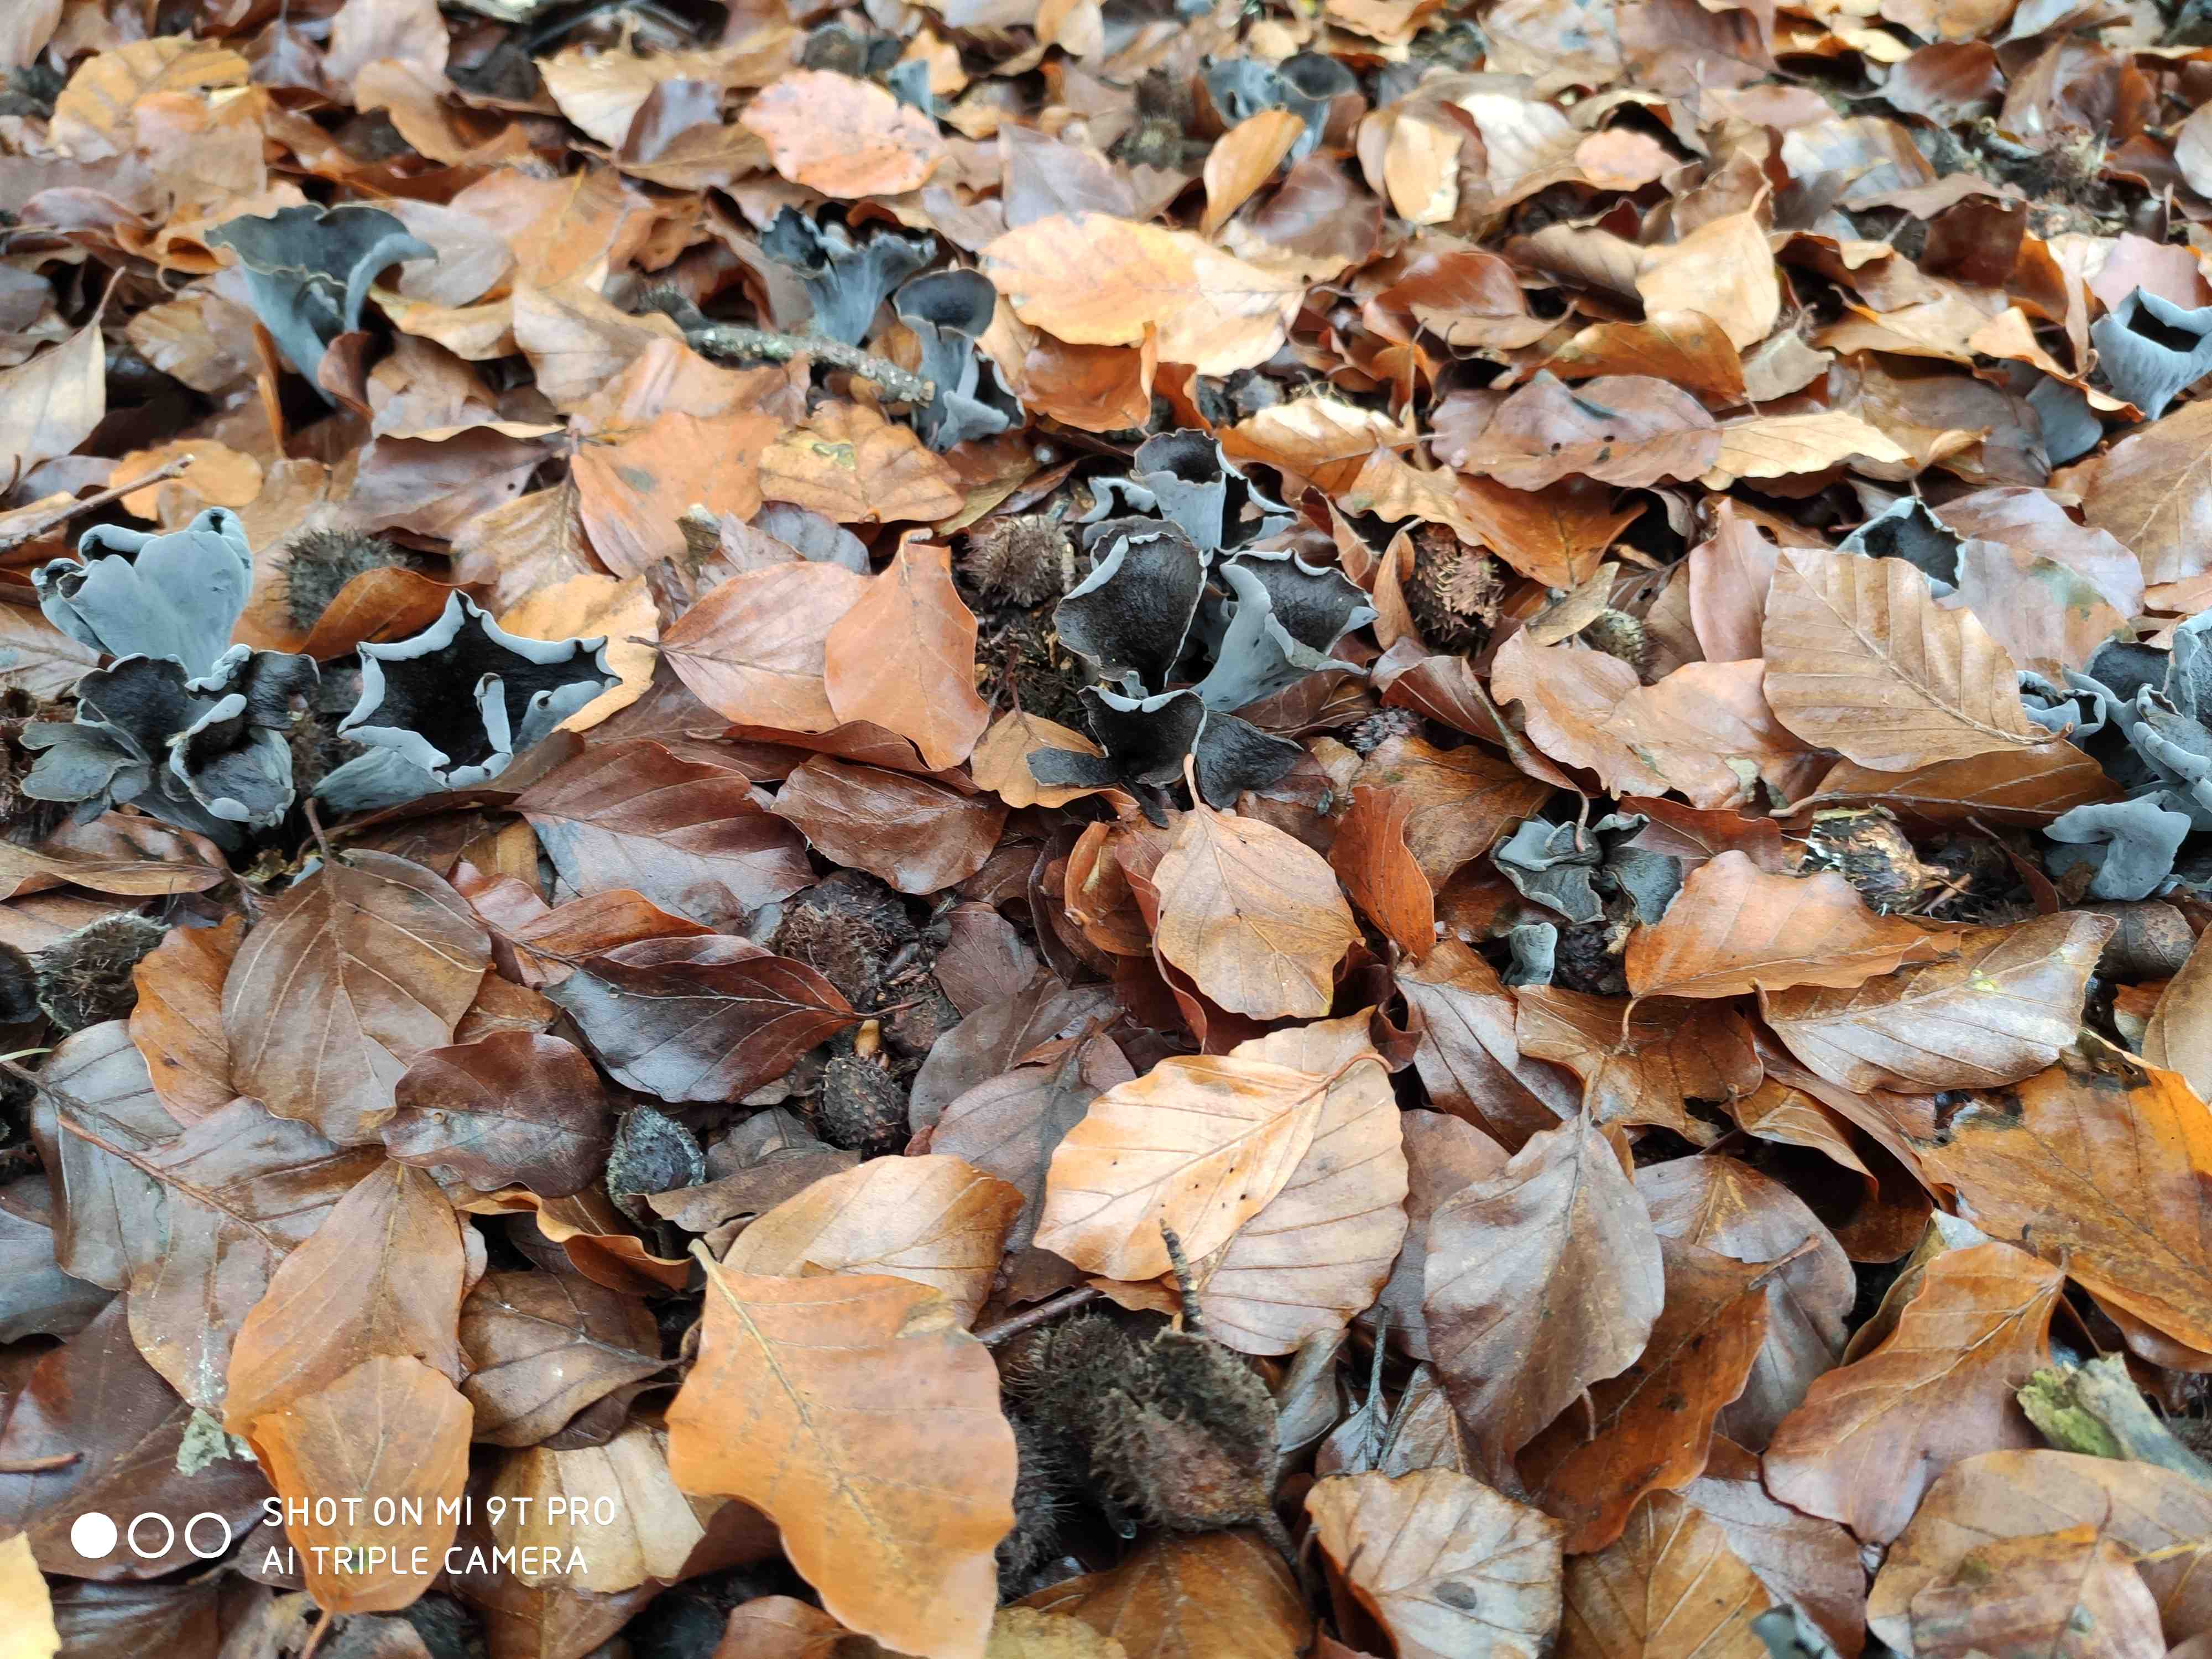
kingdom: Fungi
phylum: Basidiomycota
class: Agaricomycetes
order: Cantharellales
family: Hydnaceae
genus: Craterellus
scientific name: Craterellus cornucopioides
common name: trompetsvamp
